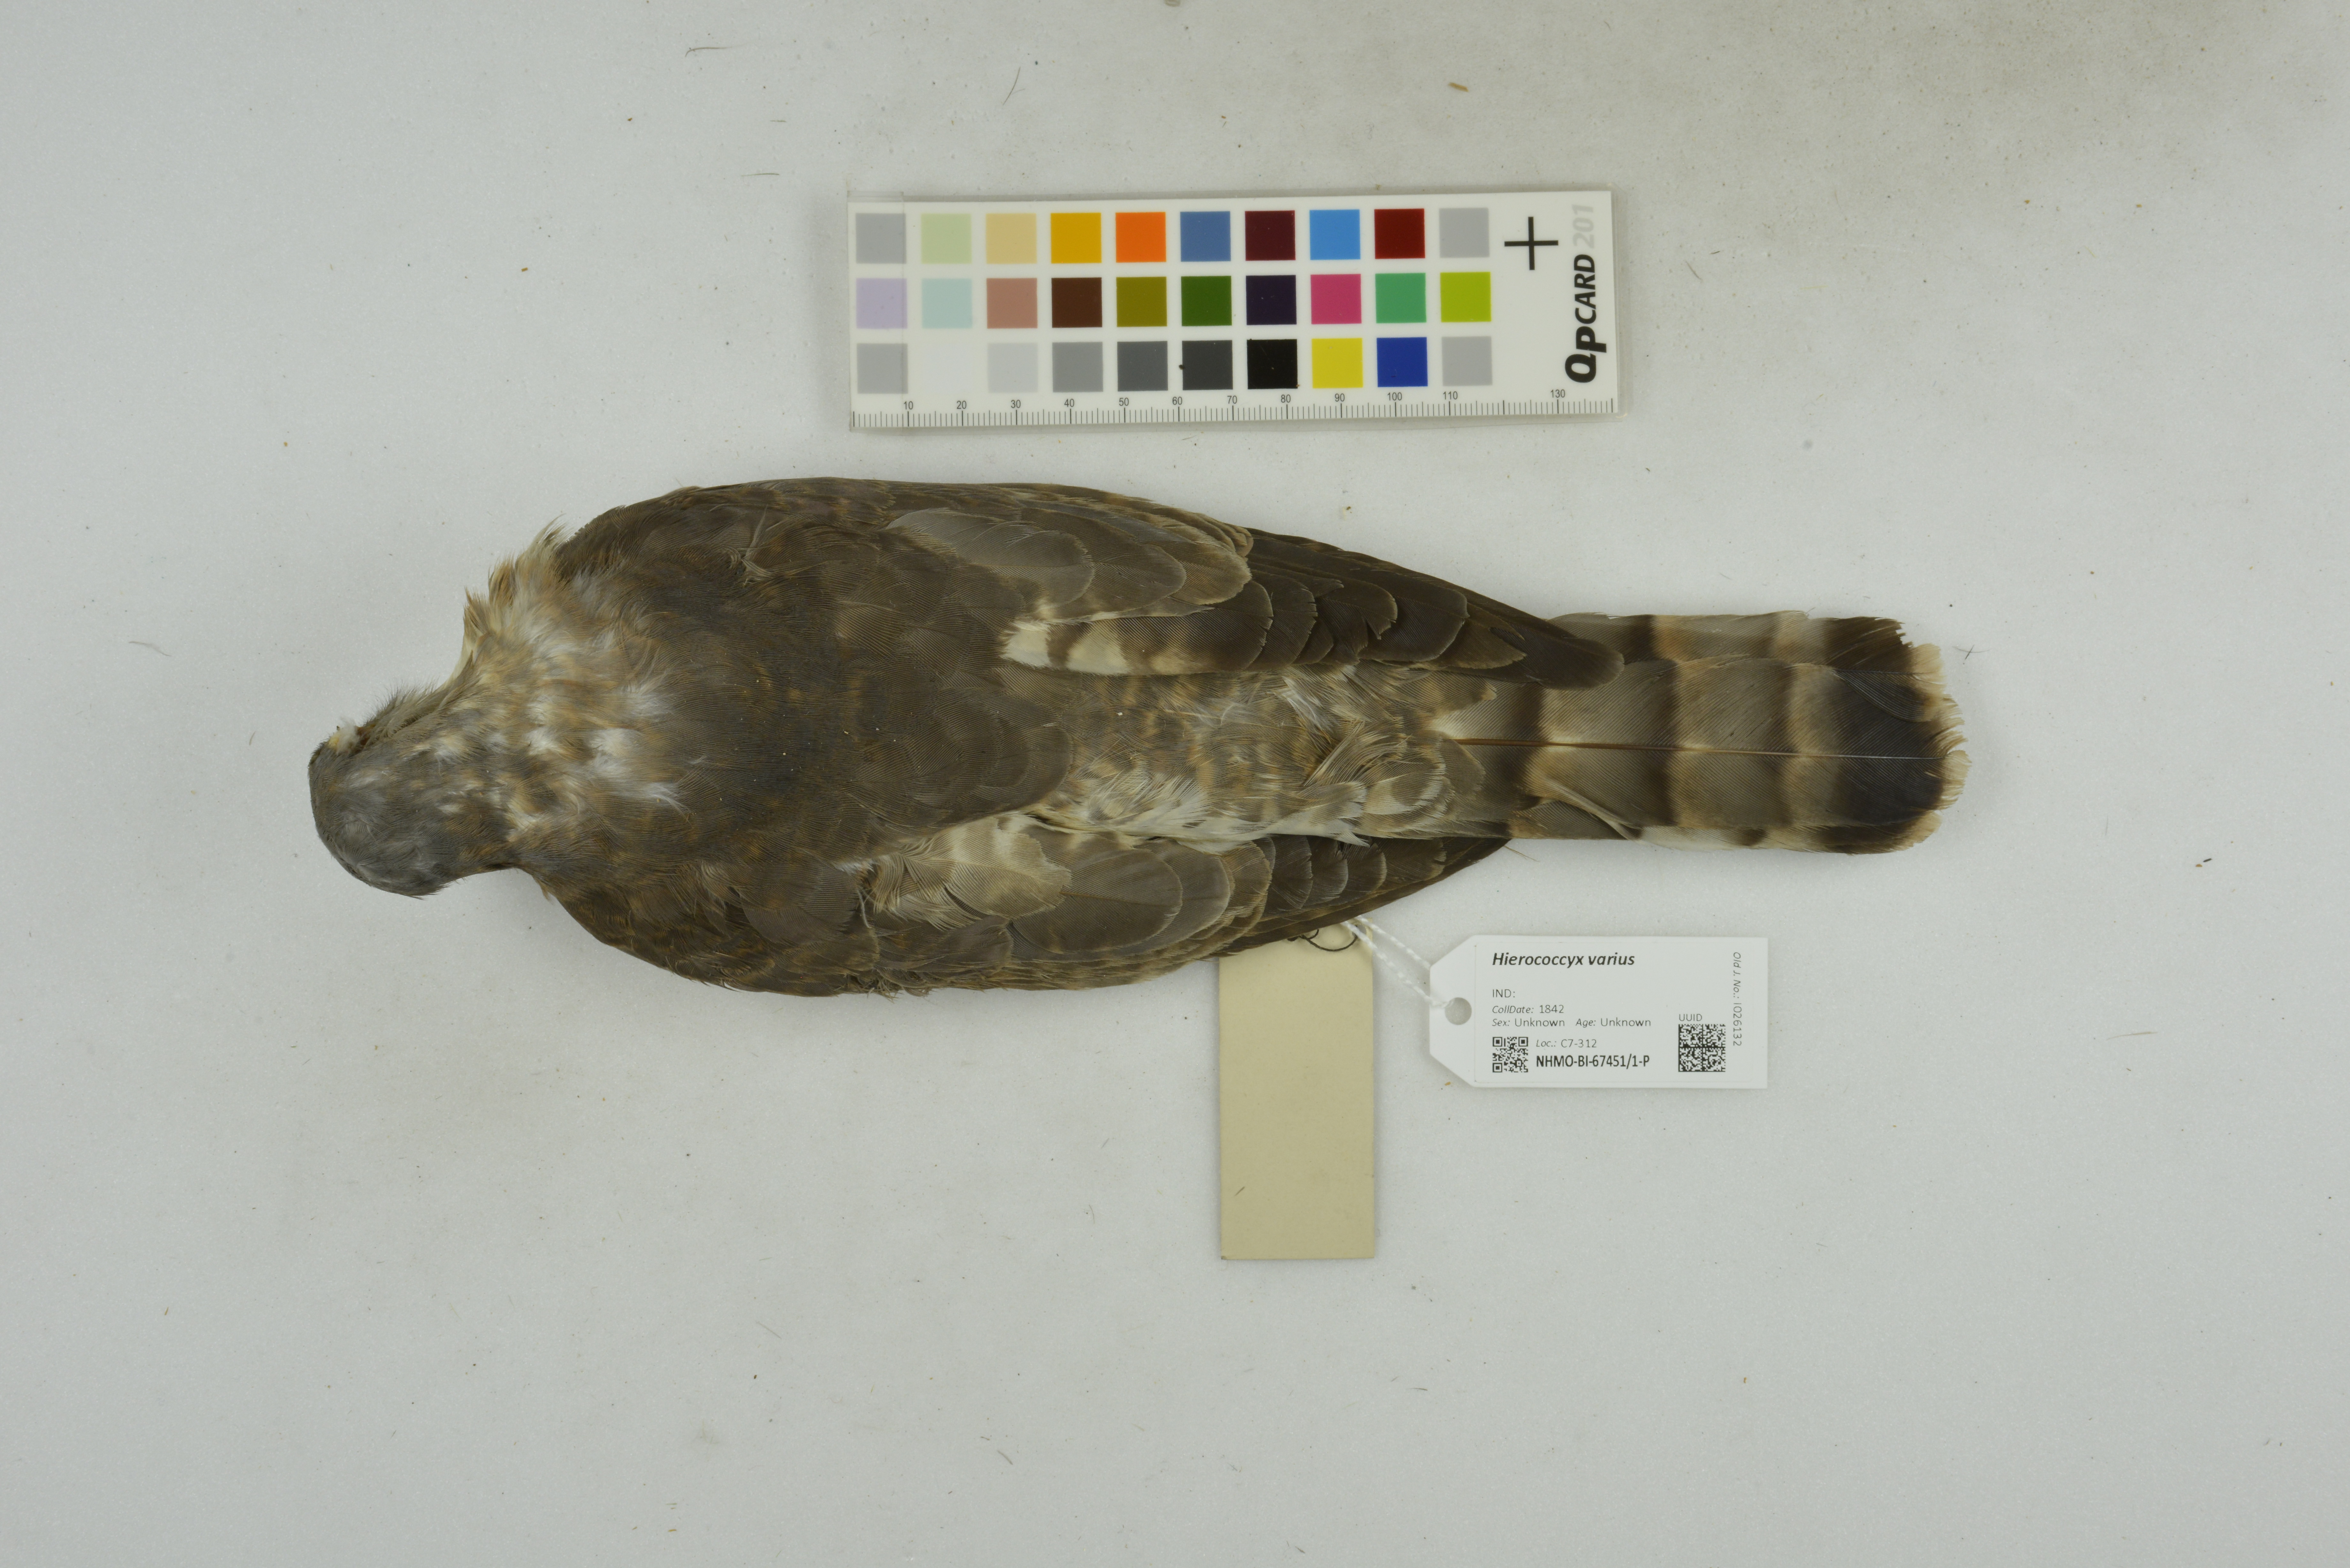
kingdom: Animalia
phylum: Chordata
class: Aves
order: Cuculiformes
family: Cuculidae
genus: Cuculus
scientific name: Cuculus varius
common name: Common hawk cuckoo
